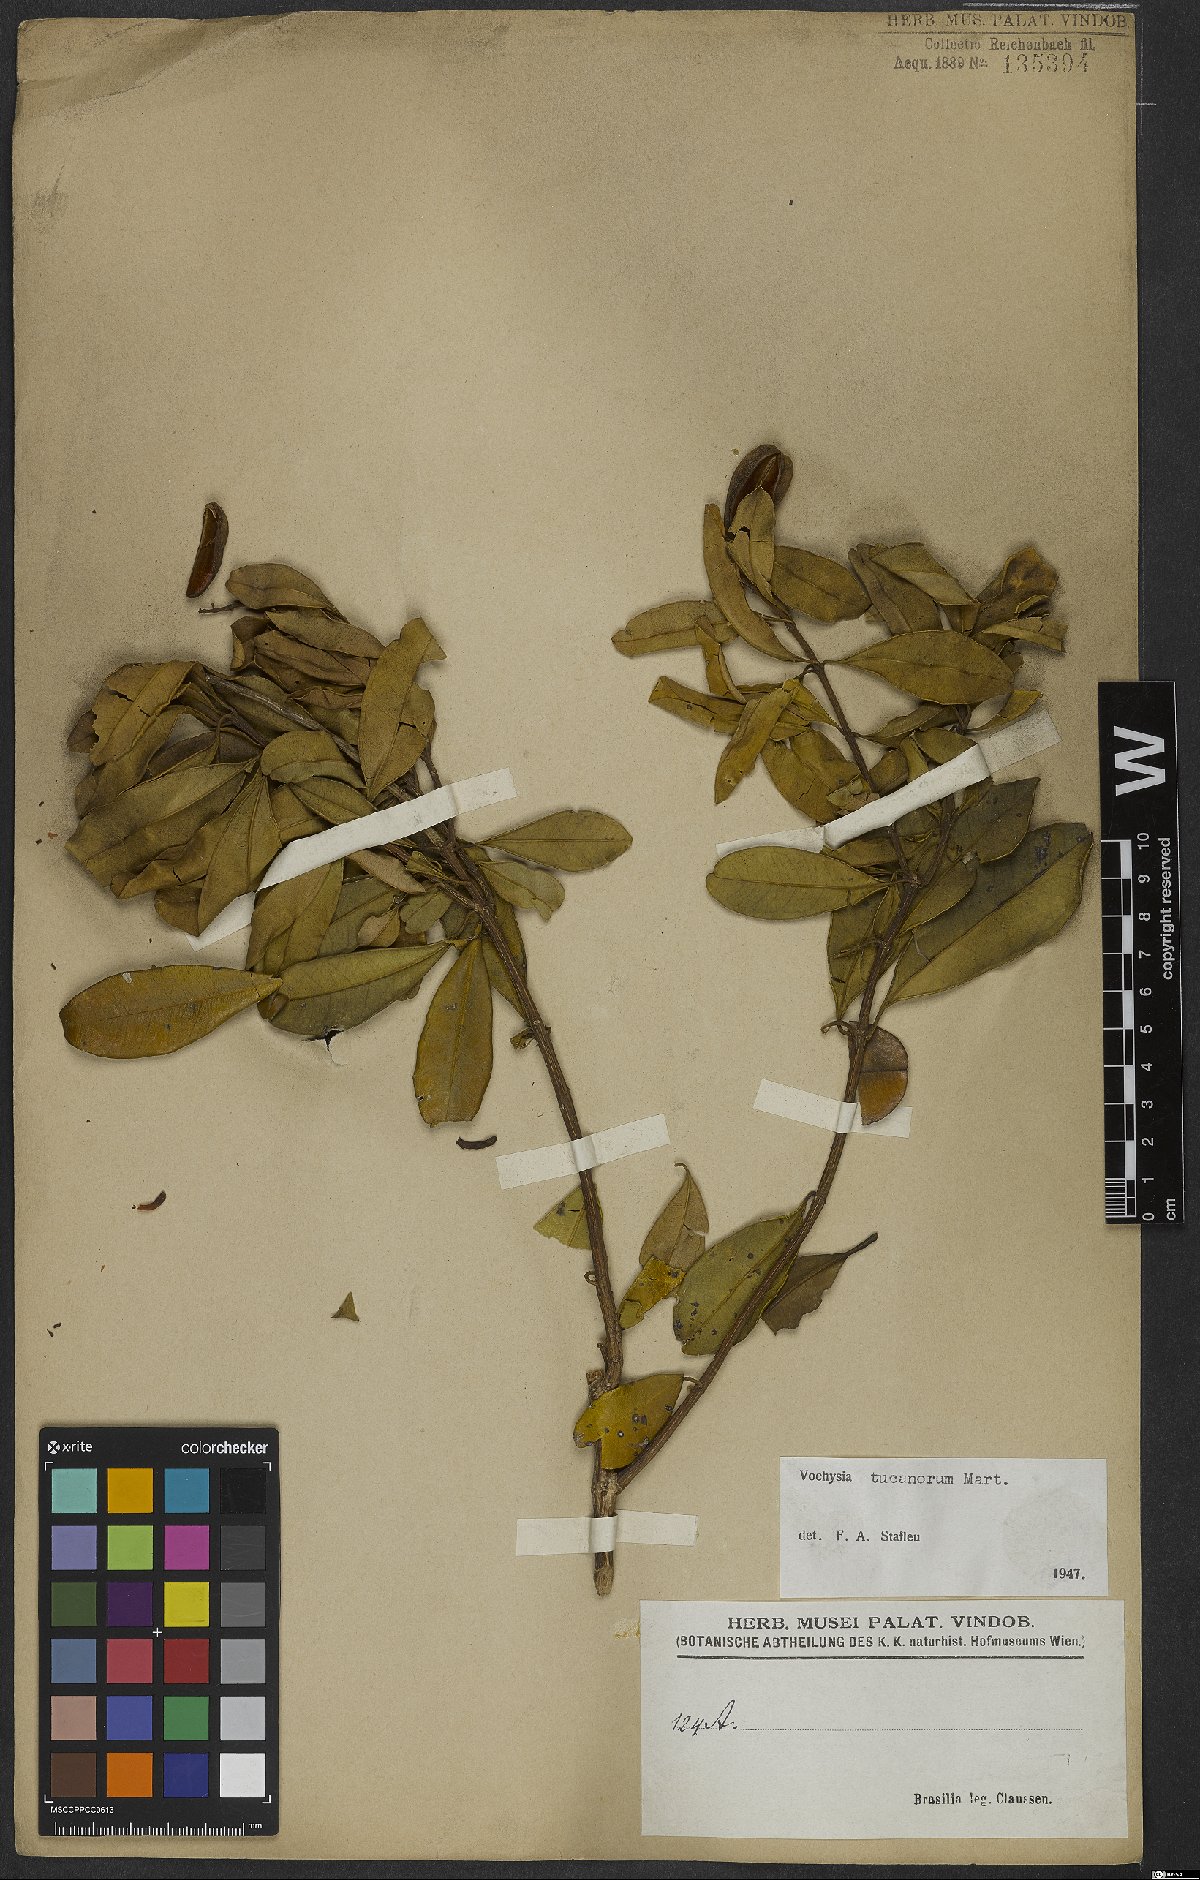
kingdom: Plantae
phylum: Tracheophyta
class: Magnoliopsida
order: Myrtales
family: Vochysiaceae
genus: Vochysia
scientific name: Vochysia tucanorum
